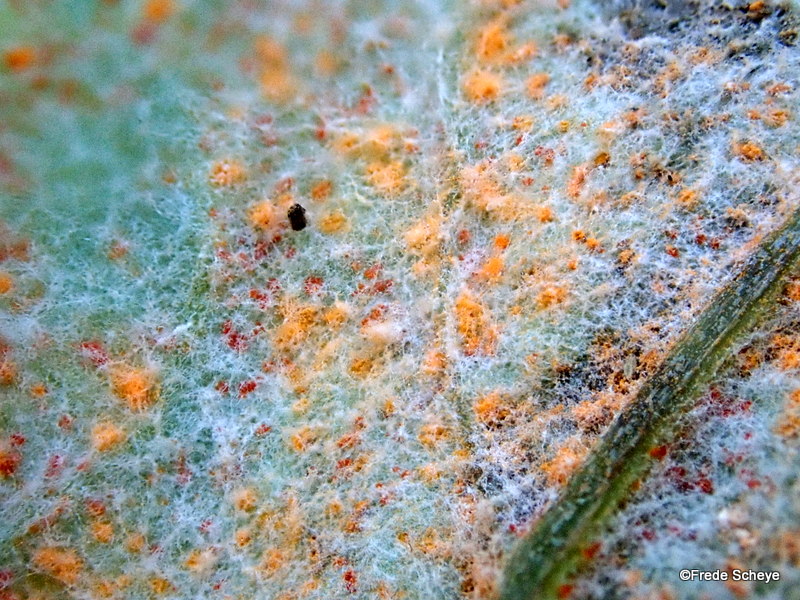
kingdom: Fungi
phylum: Basidiomycota
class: Pucciniomycetes
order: Pucciniales
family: Coleosporiaceae
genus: Coleosporium
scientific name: Coleosporium tussilaginis
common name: almindelig fyrrenålerust
